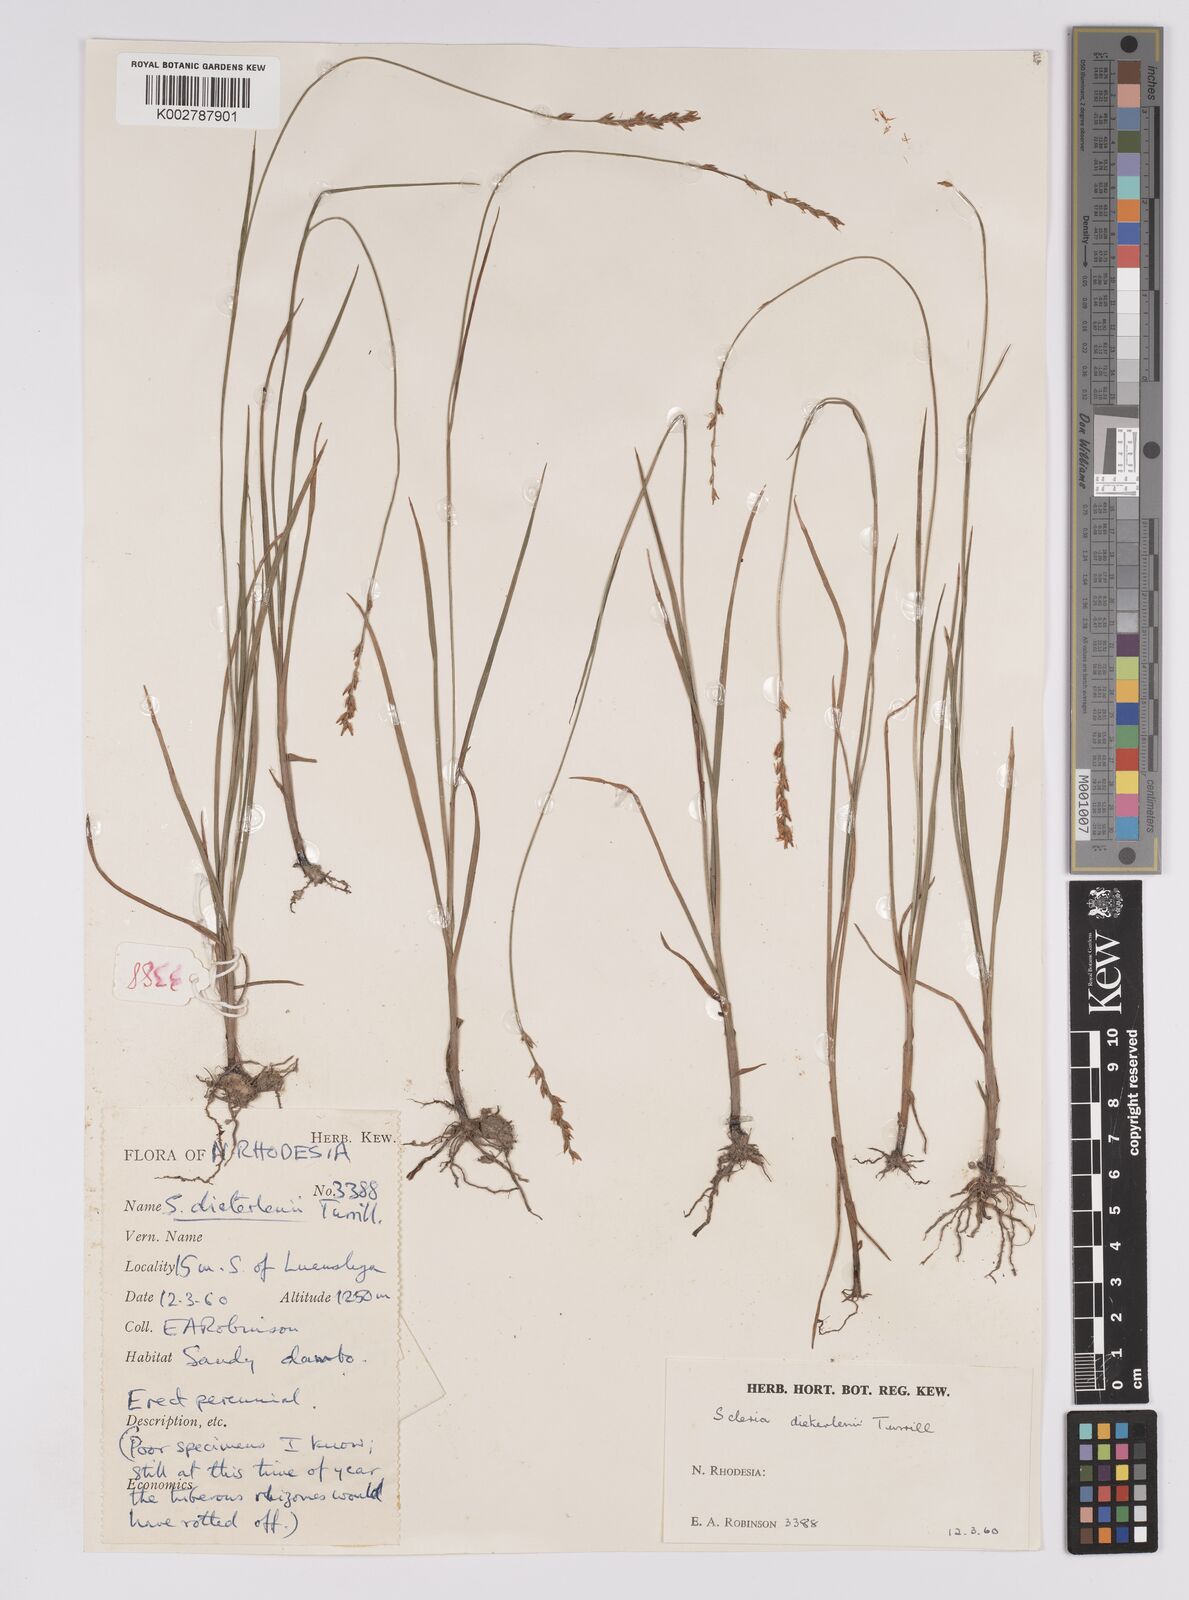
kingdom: Plantae
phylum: Tracheophyta
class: Liliopsida
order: Poales
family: Cyperaceae
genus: Scleria
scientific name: Scleria flexuosa
